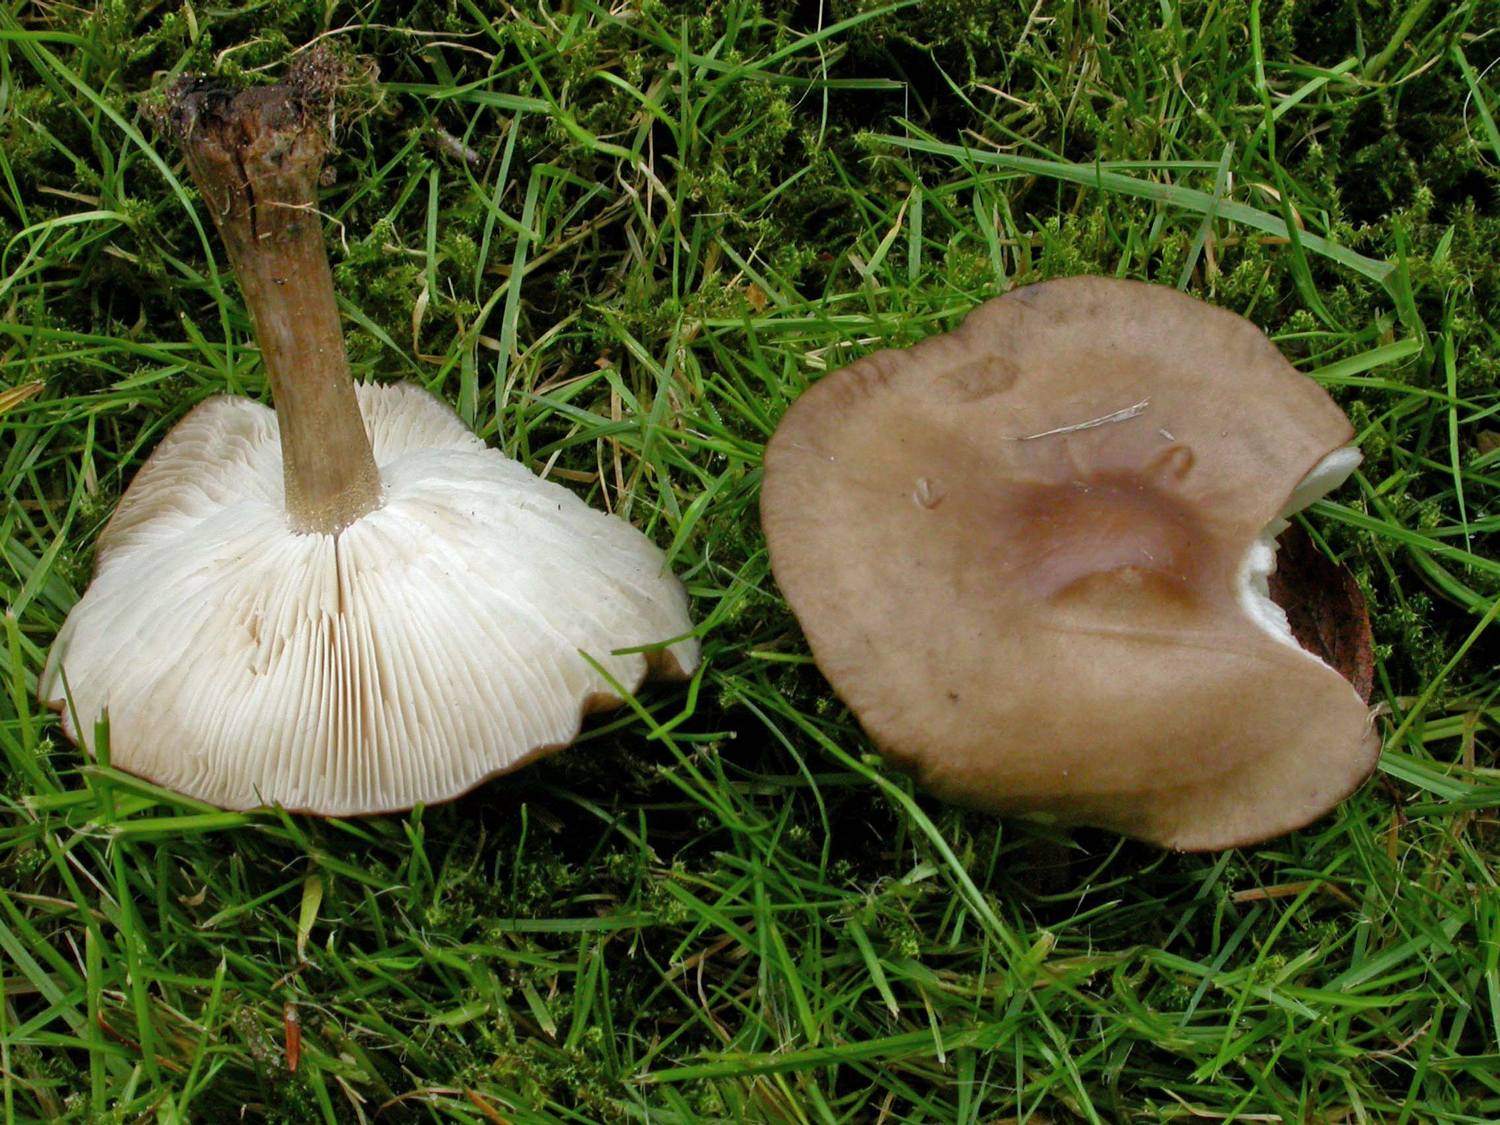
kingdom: Fungi
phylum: Basidiomycota
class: Agaricomycetes
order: Agaricales
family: Tricholomataceae
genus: Melanoleuca
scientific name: Melanoleuca polioleuca
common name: almindelig munkehat
